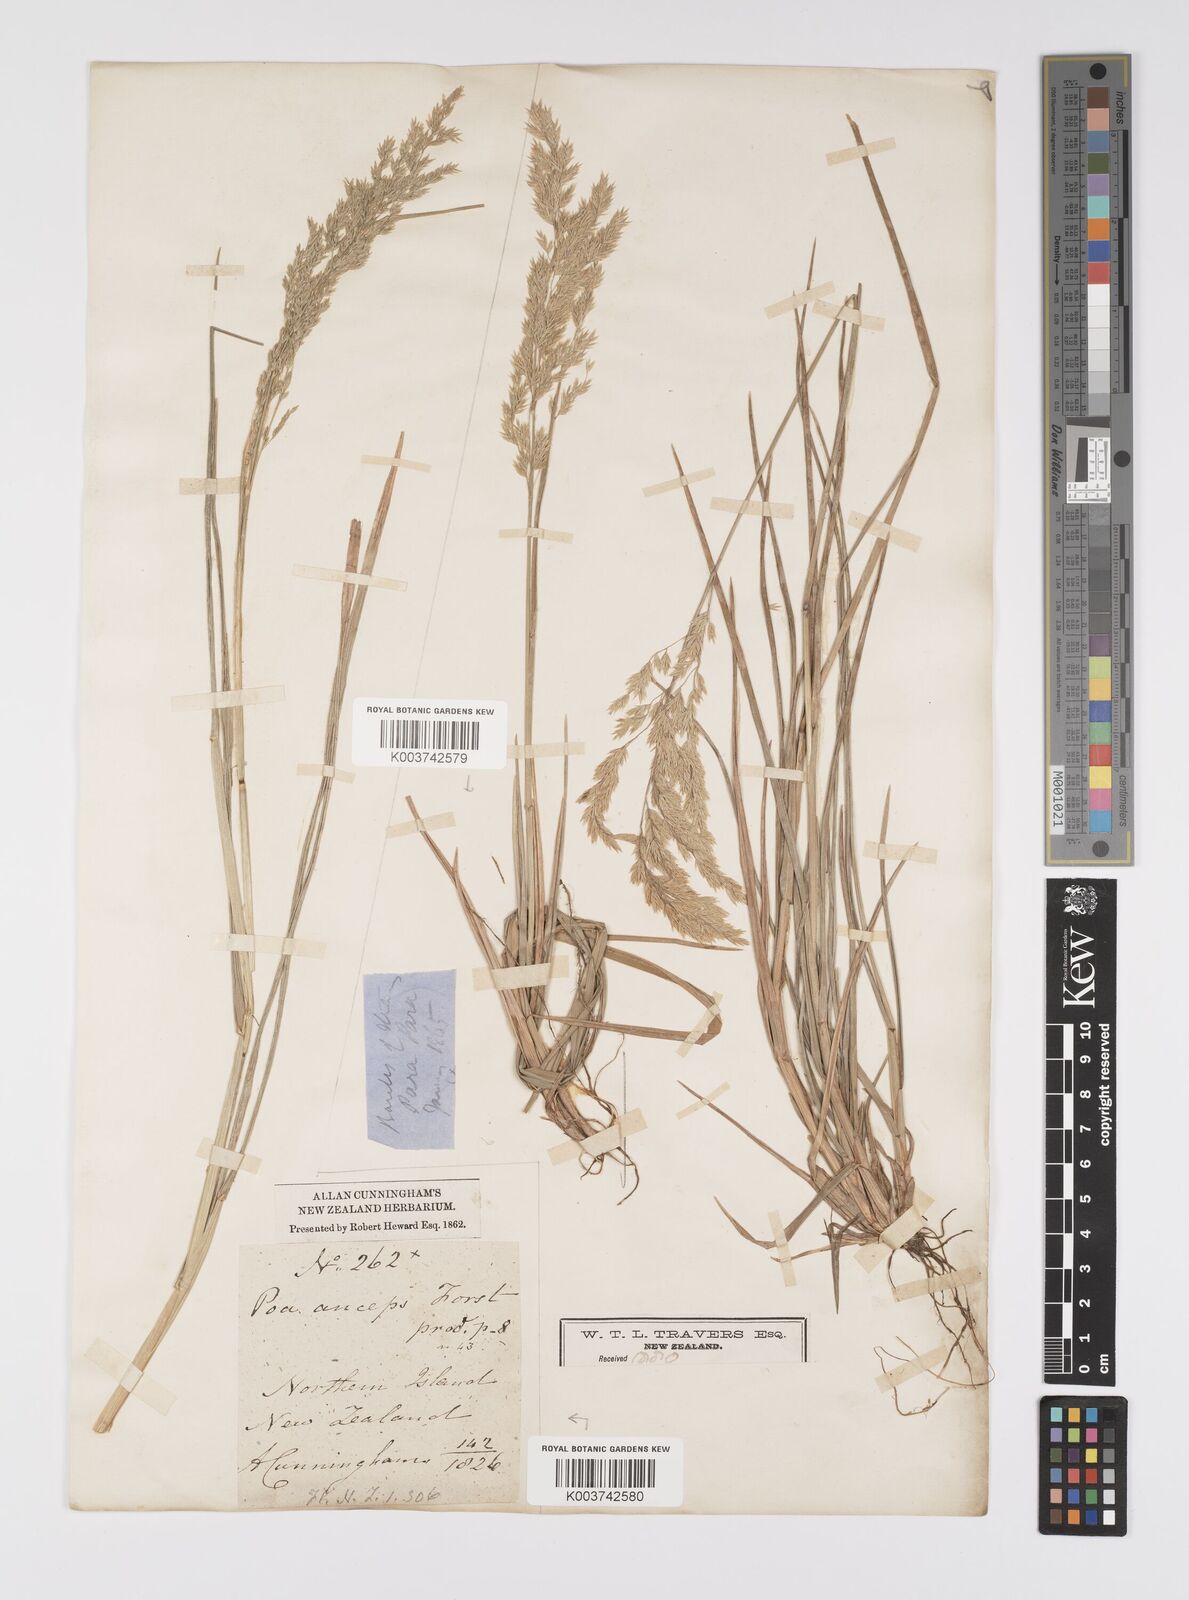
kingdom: Plantae
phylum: Tracheophyta
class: Liliopsida
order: Poales
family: Poaceae
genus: Poa
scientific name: Poa anceps
